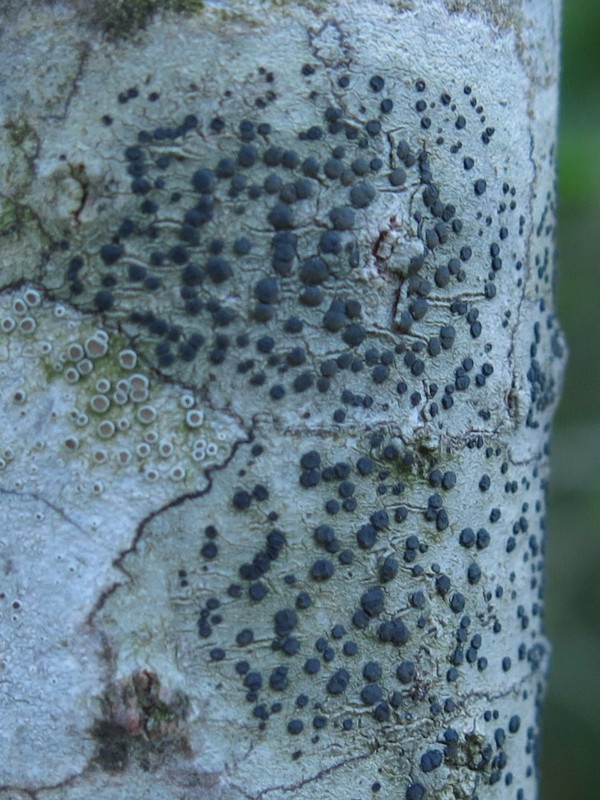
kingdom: Fungi
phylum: Ascomycota
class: Lecanoromycetes
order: Lecanorales
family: Lecanoraceae
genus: Lecidella
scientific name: Lecidella elaeochroma
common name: grågrøn skivelav
